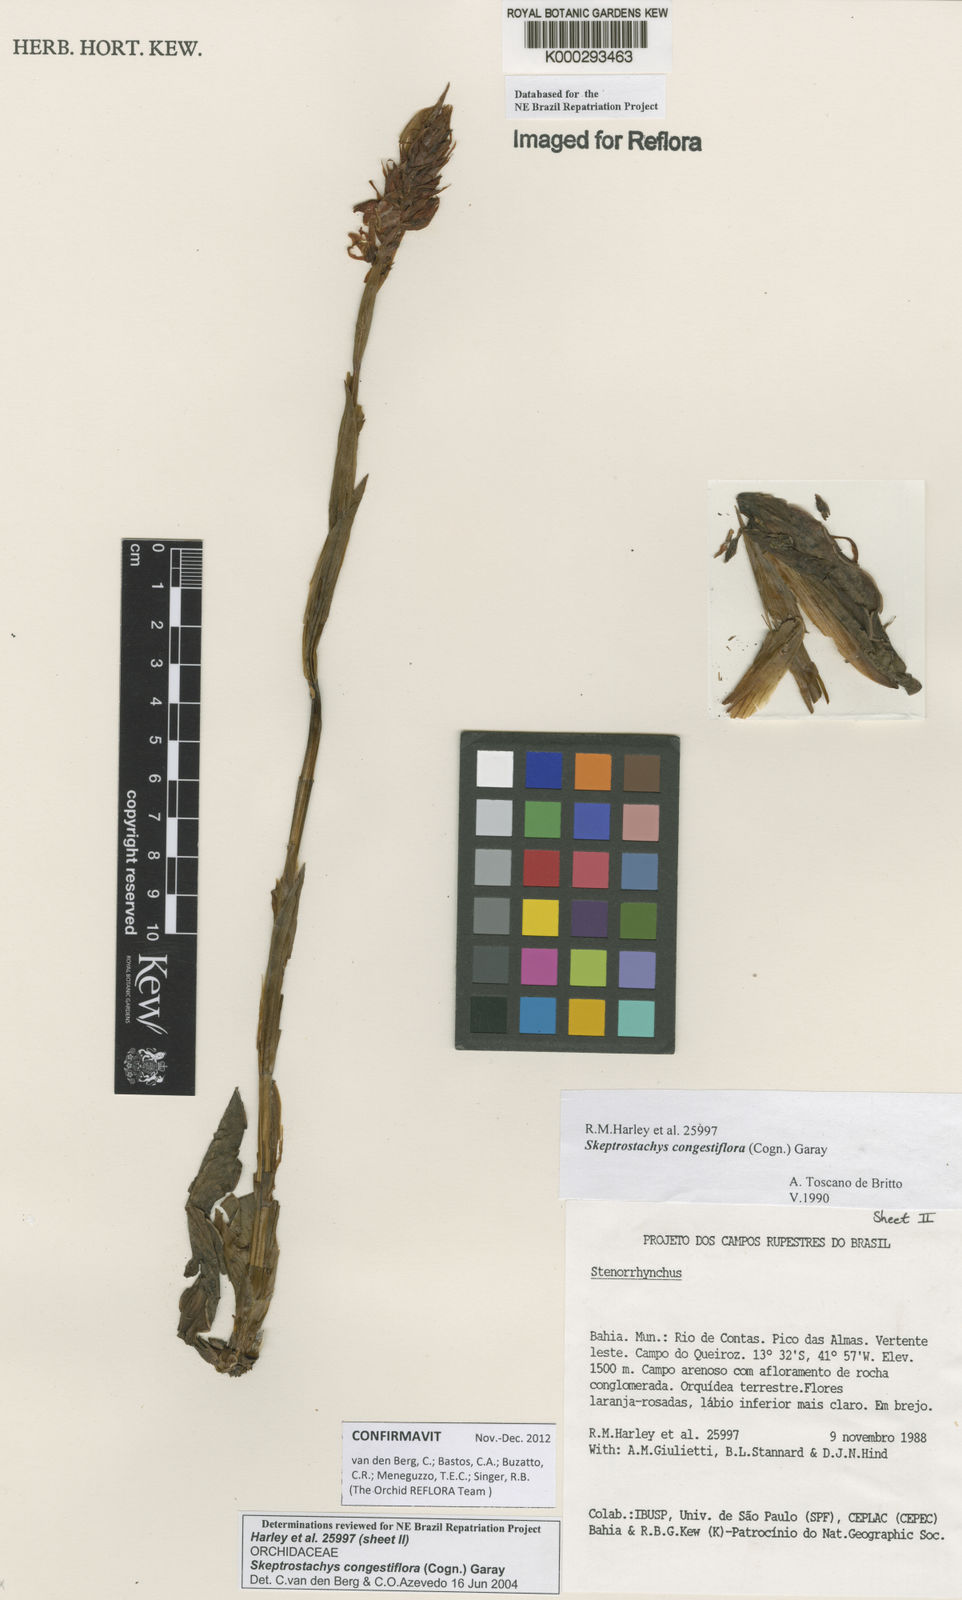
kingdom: Plantae
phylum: Tracheophyta
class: Liliopsida
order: Asparagales
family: Orchidaceae
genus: Skeptrostachys
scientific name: Skeptrostachys congestiflora
